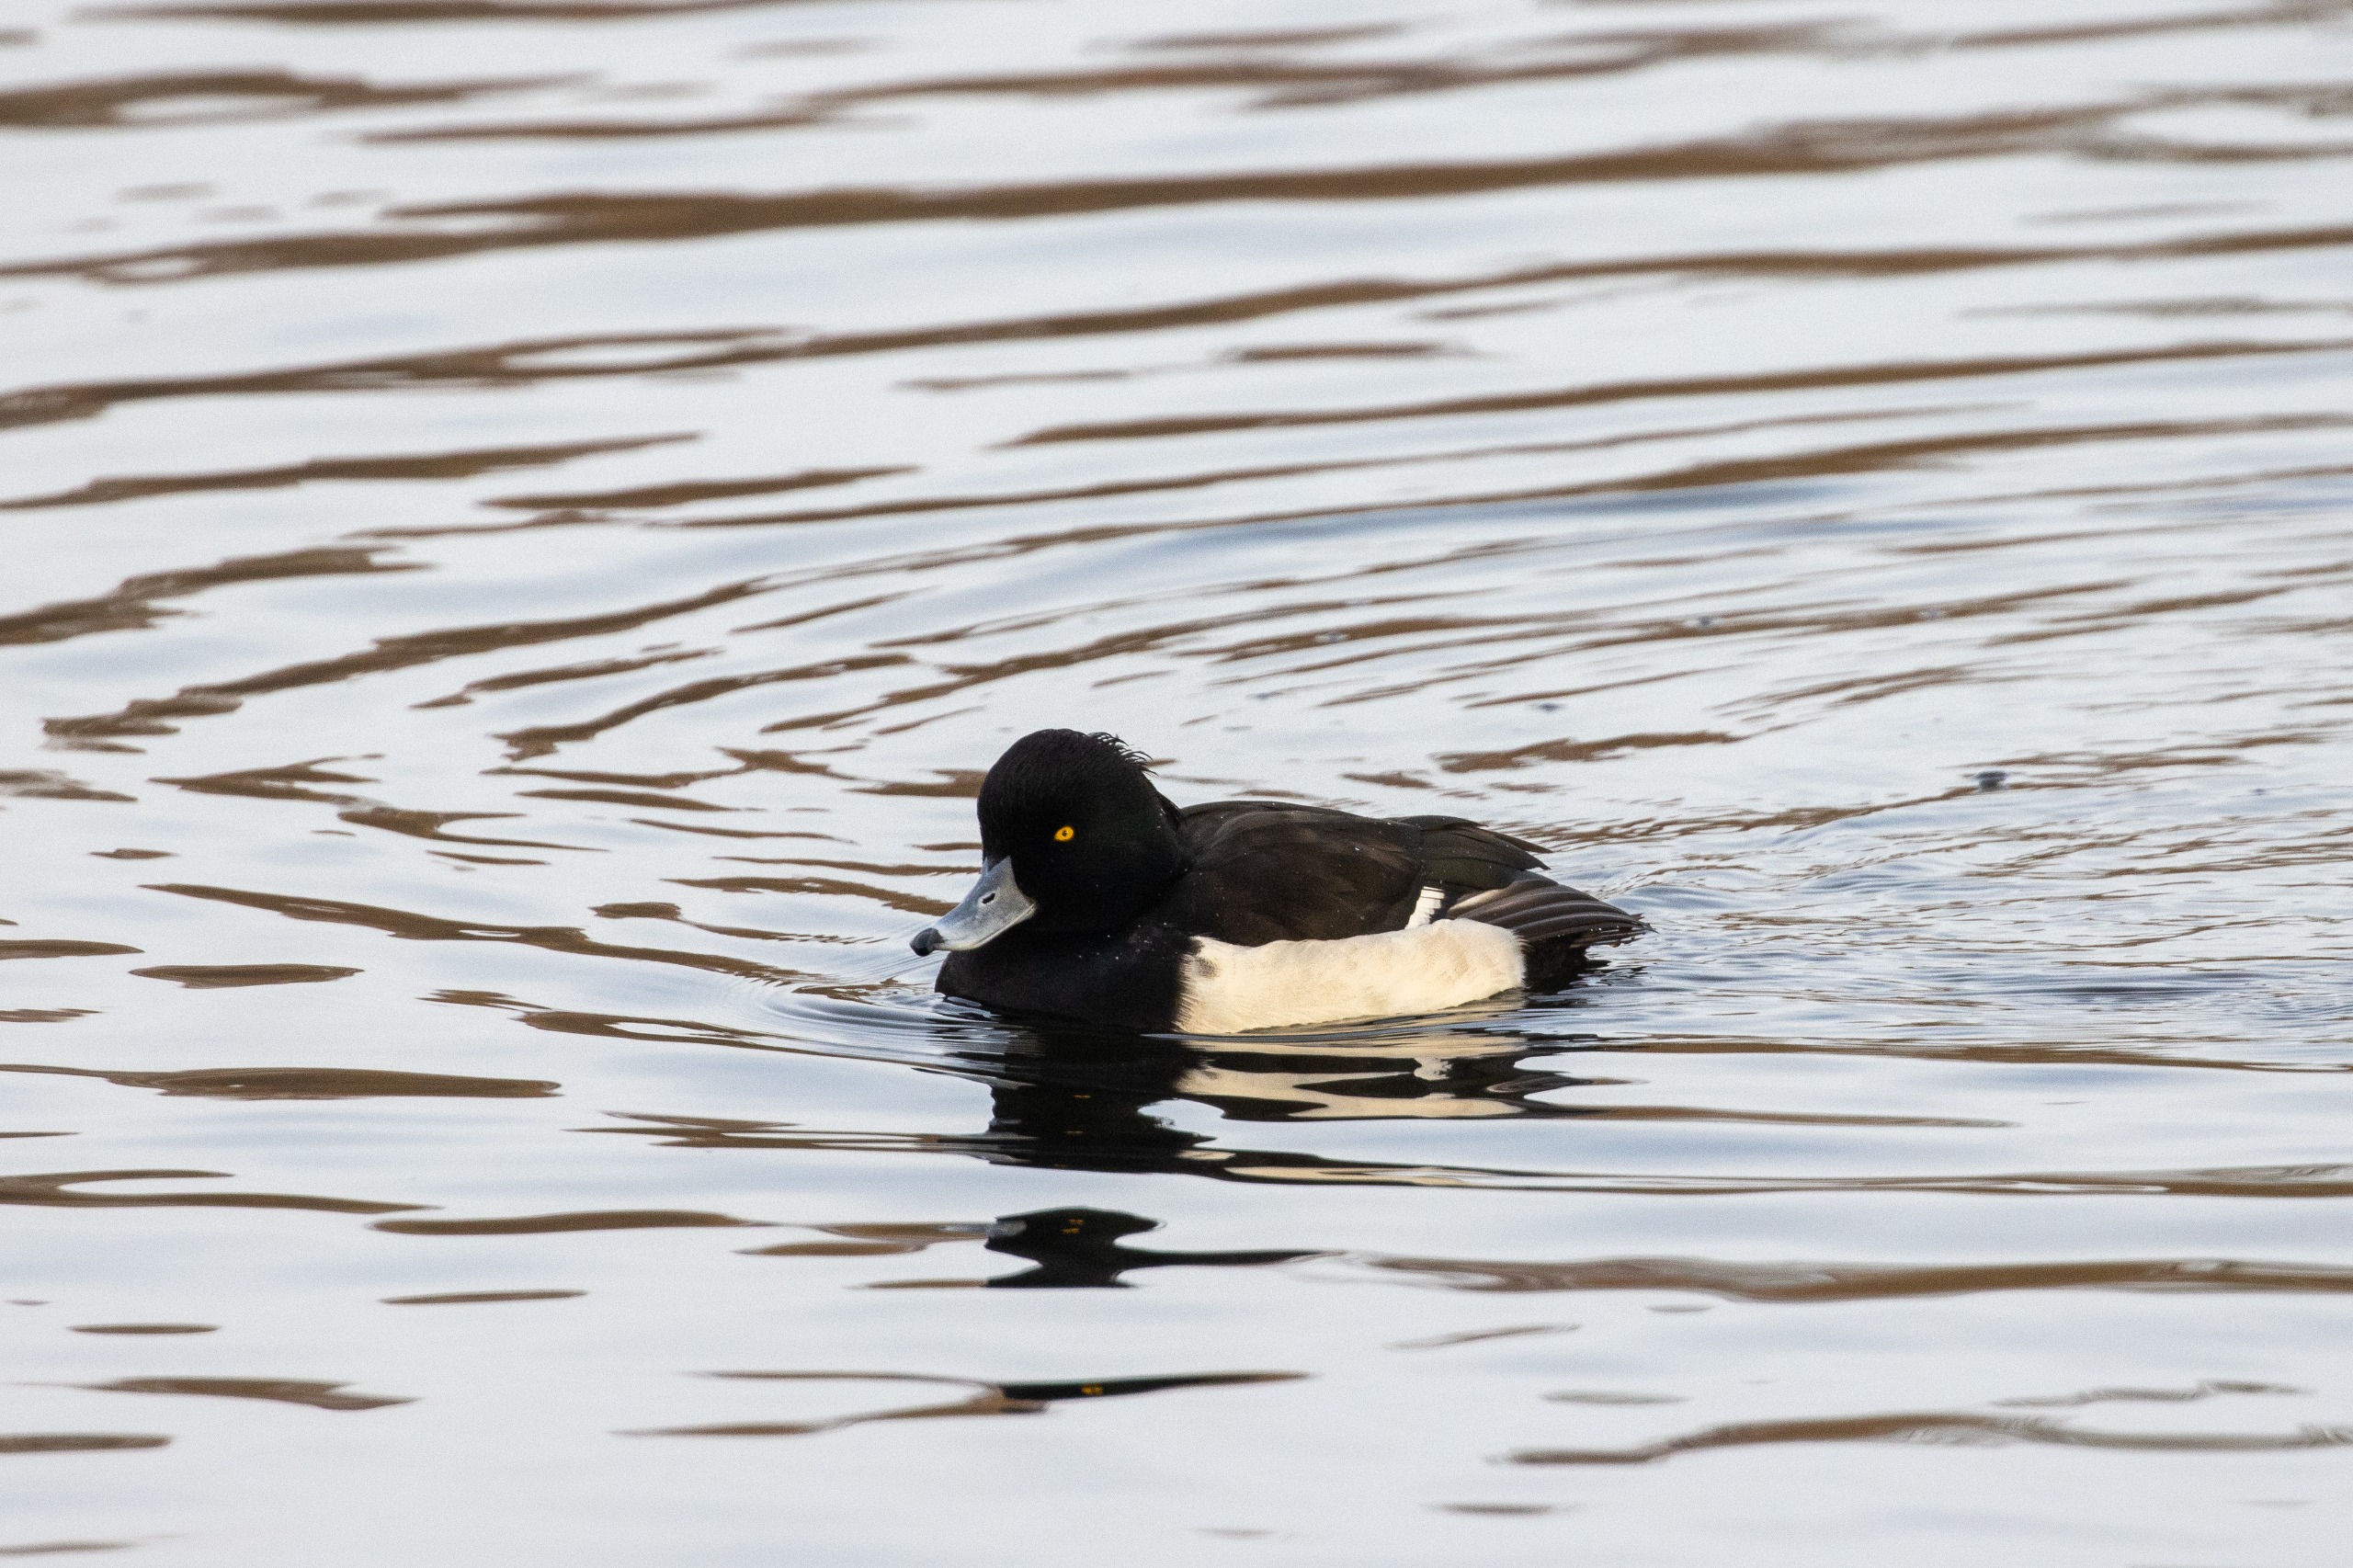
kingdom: Animalia
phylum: Chordata
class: Aves
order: Anseriformes
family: Anatidae
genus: Aythya
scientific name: Aythya fuligula
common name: Troldand
